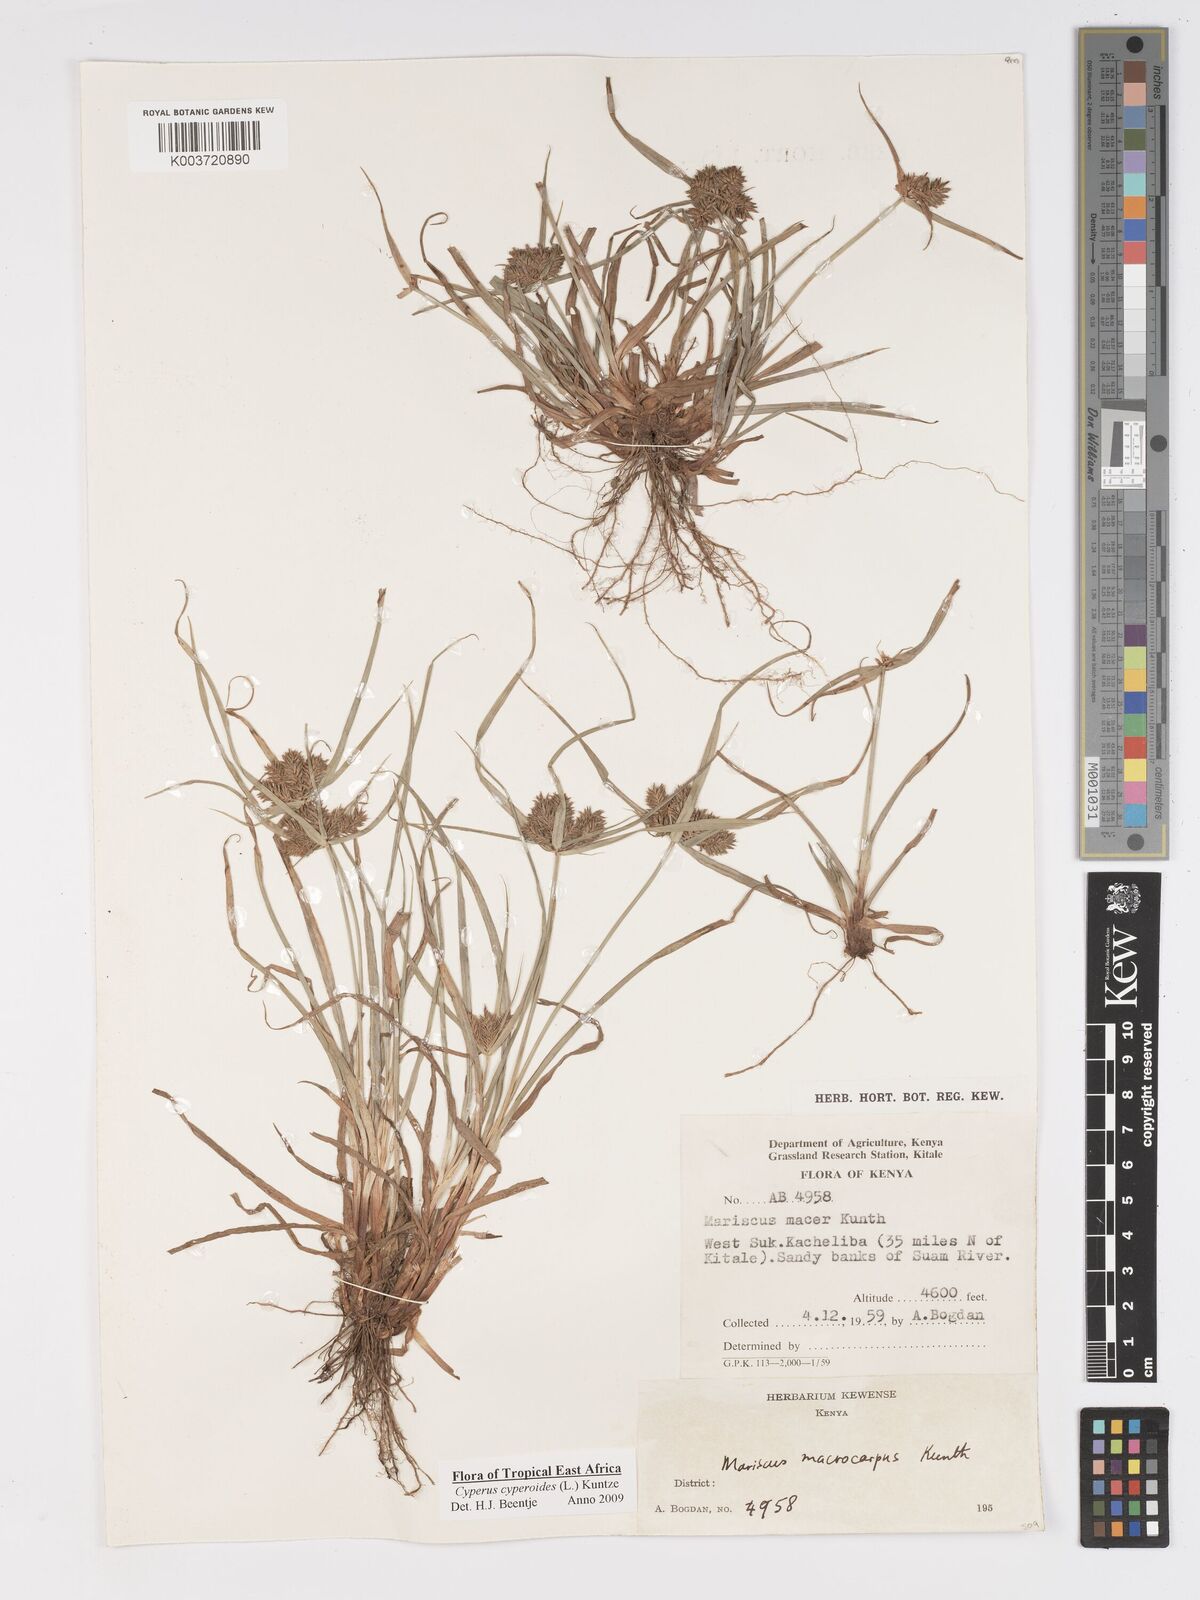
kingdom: Plantae
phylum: Tracheophyta
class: Liliopsida
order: Poales
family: Cyperaceae
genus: Cyperus
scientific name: Cyperus macrocarpus
